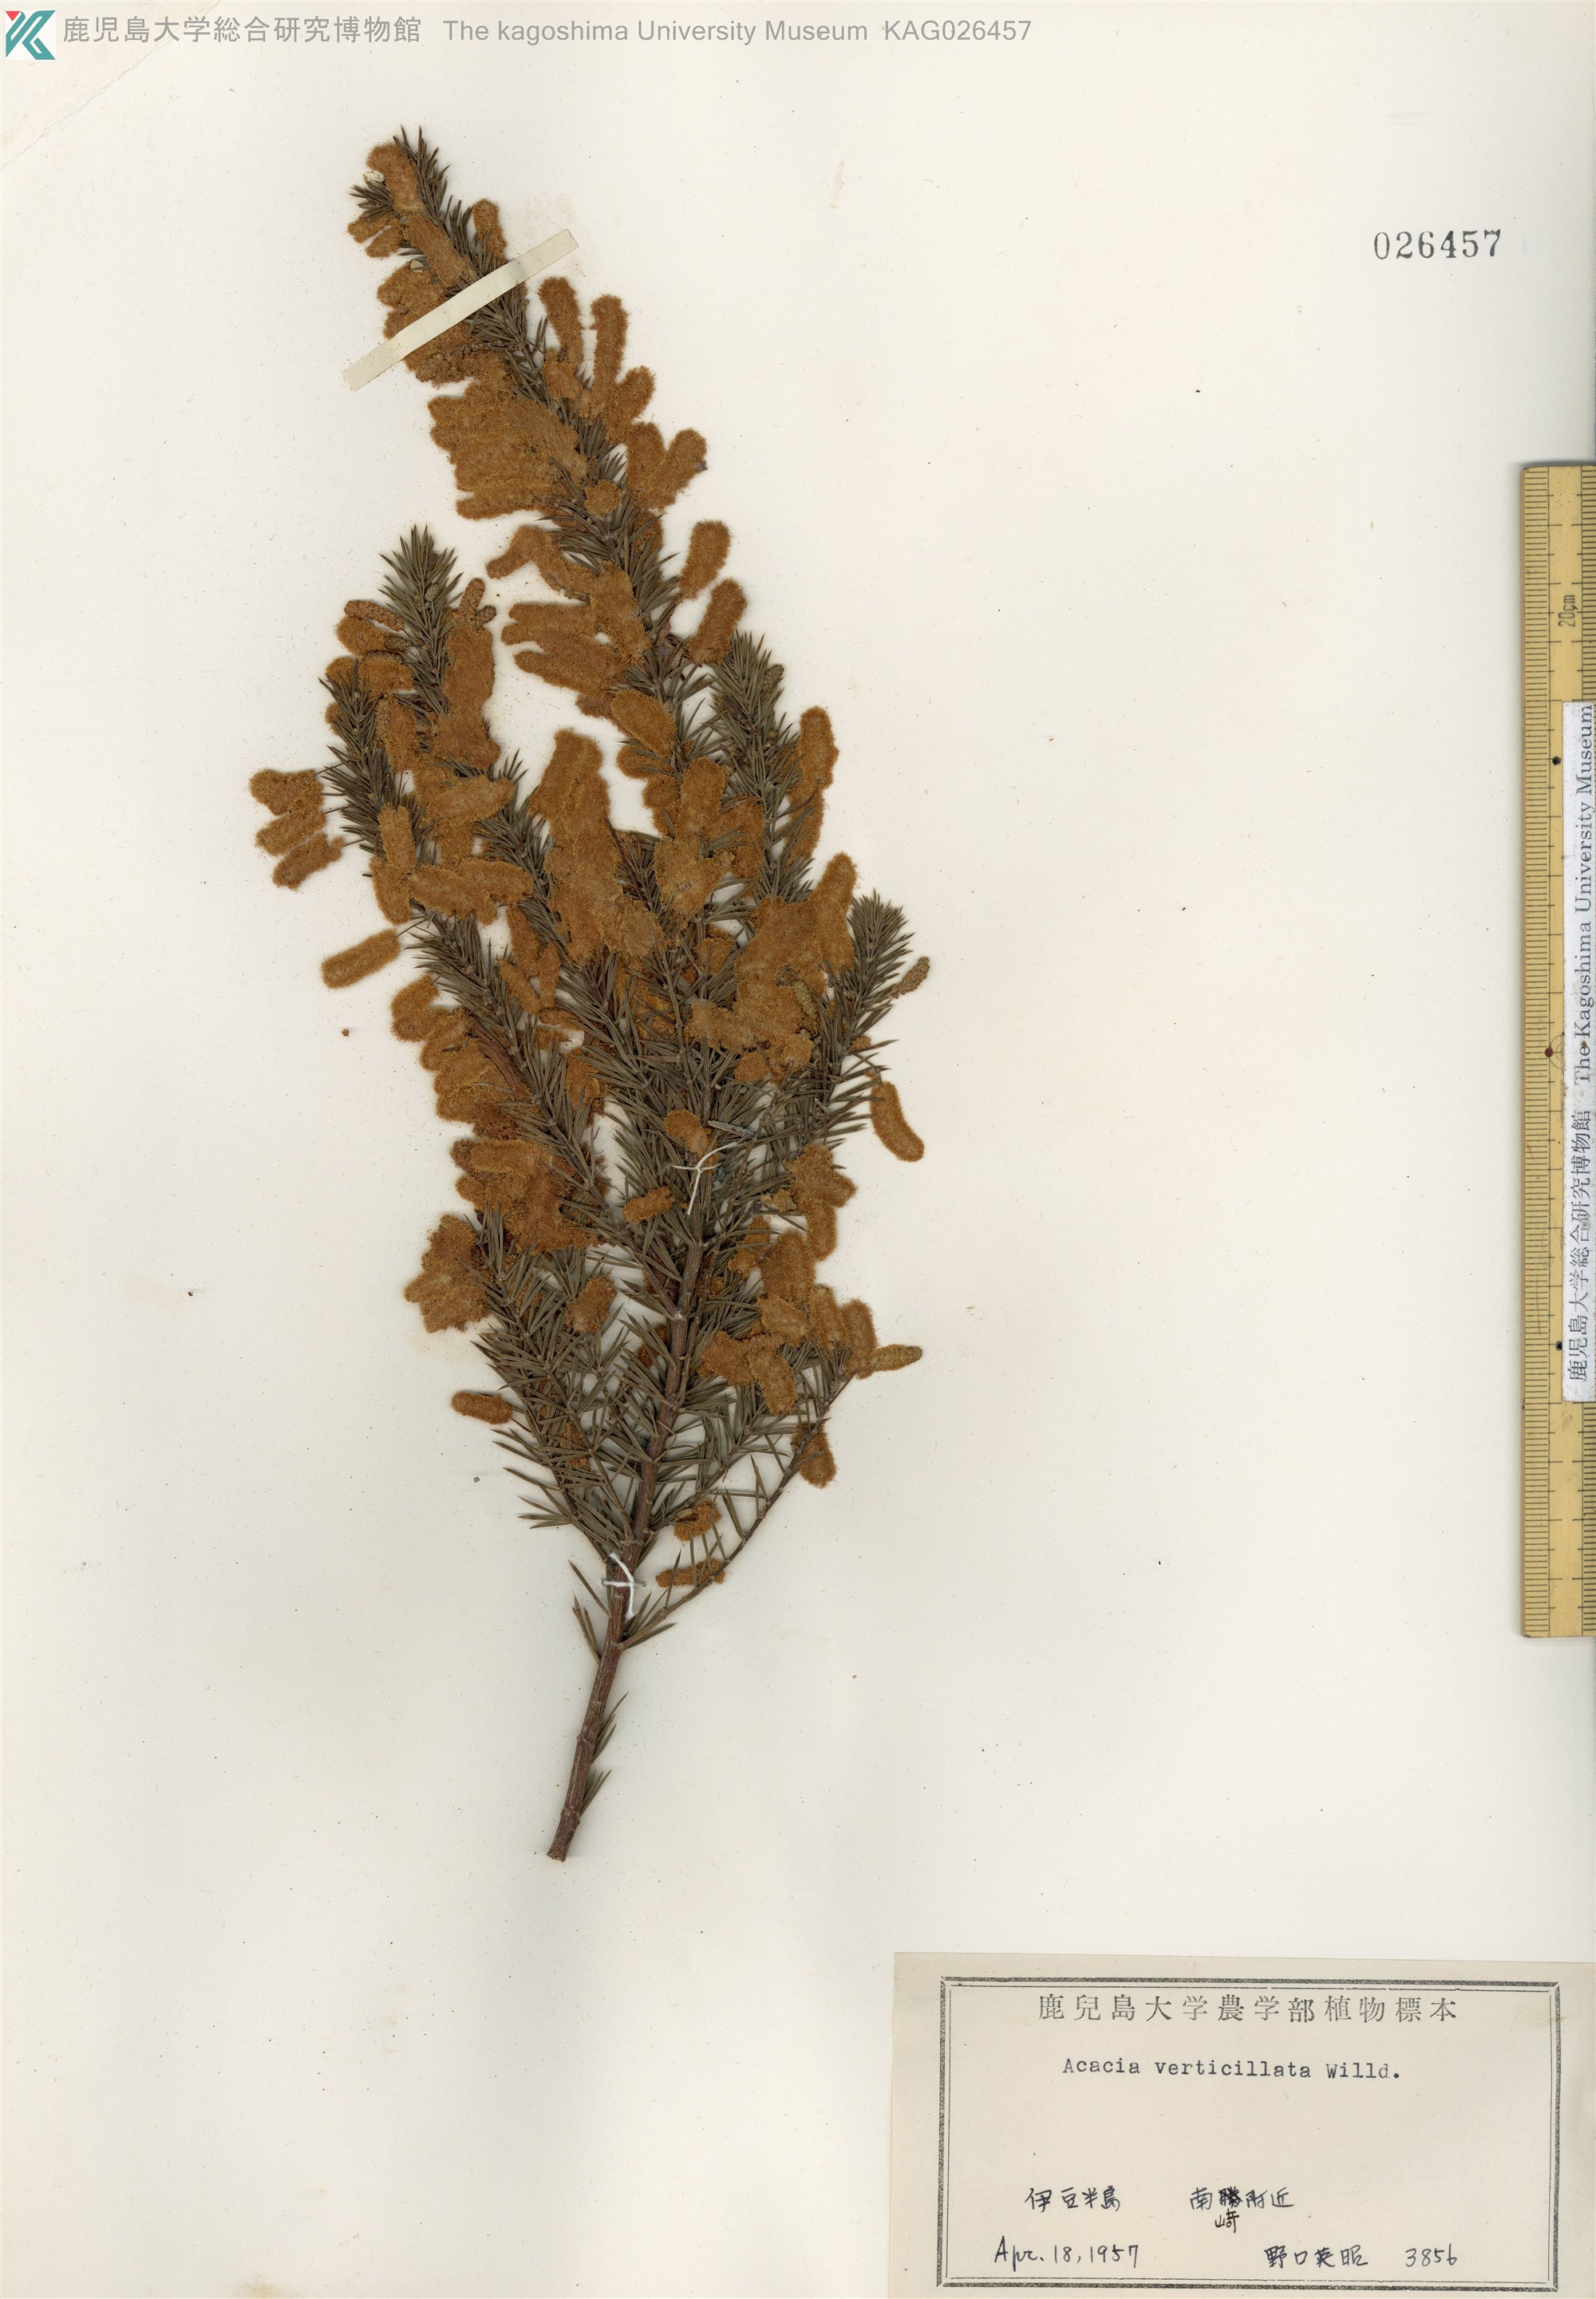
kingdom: Plantae
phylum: Tracheophyta
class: Magnoliopsida
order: Fabales
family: Fabaceae
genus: Acacia
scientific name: Acacia verticillata
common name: Prickly moses
